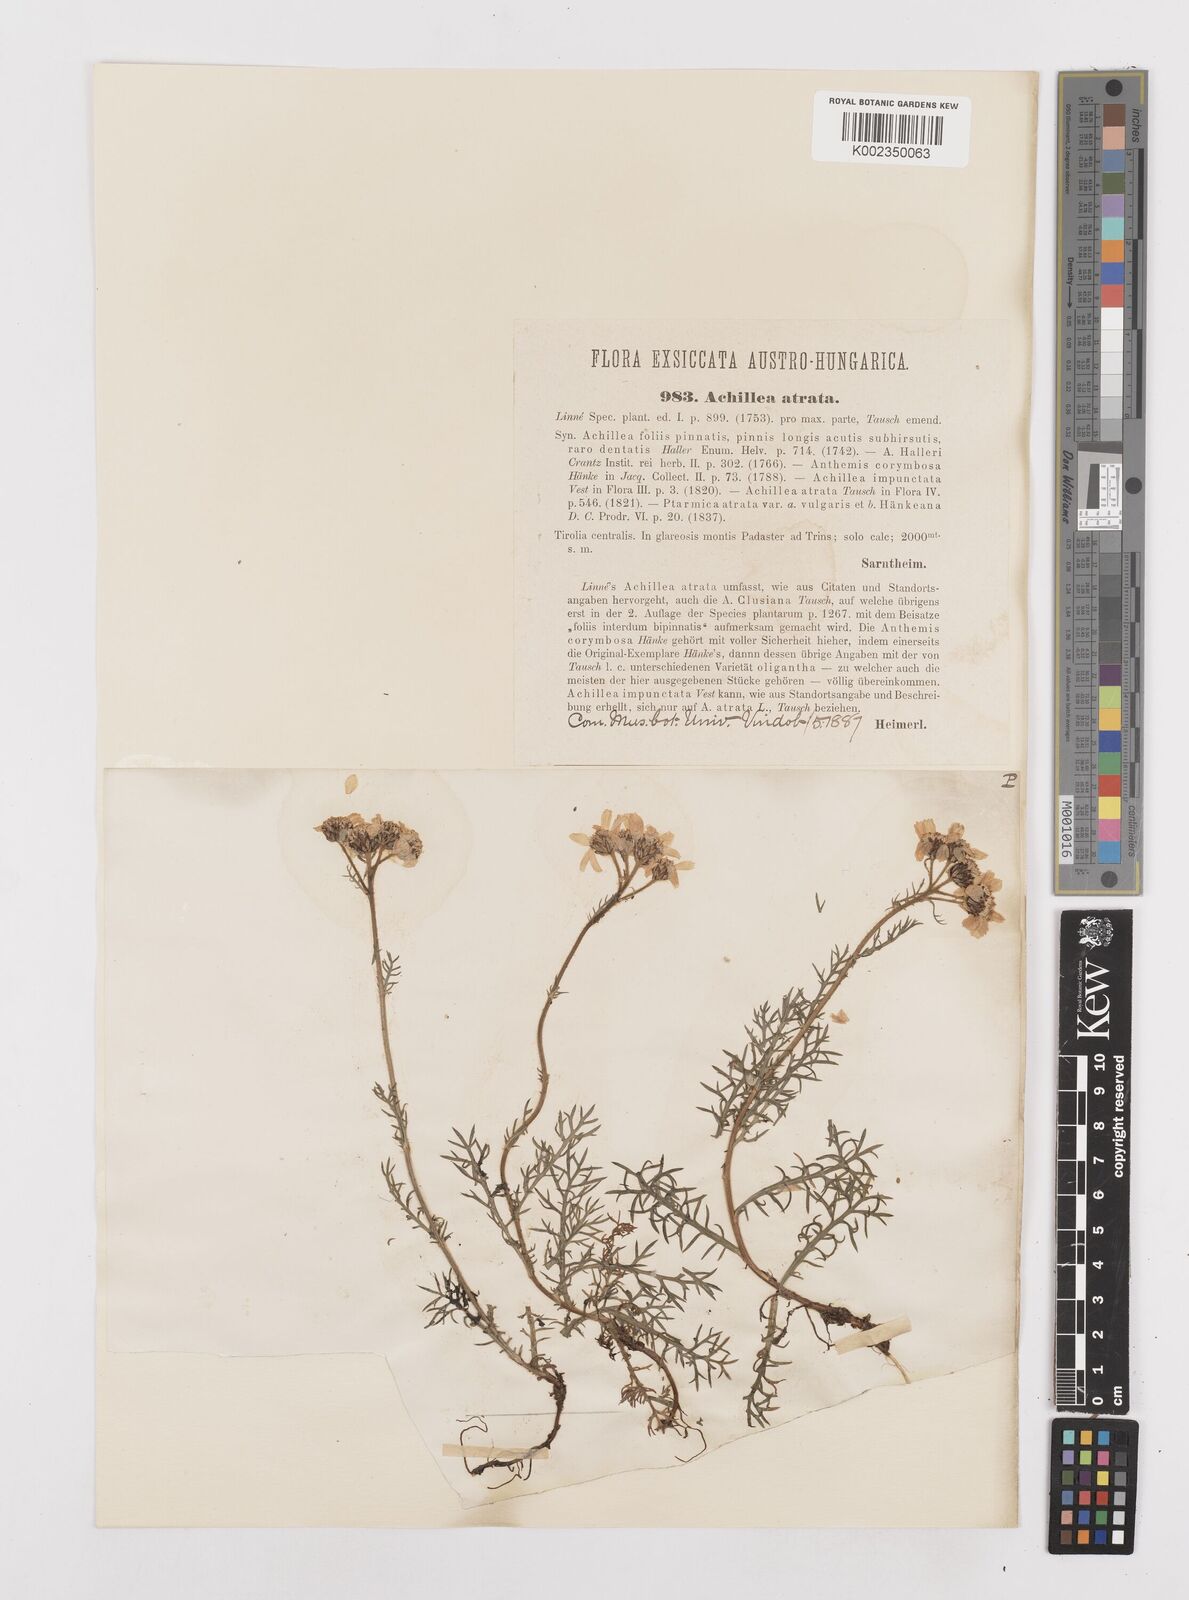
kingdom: Plantae
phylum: Tracheophyta
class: Magnoliopsida
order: Asterales
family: Asteraceae
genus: Achillea
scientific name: Achillea atrata
